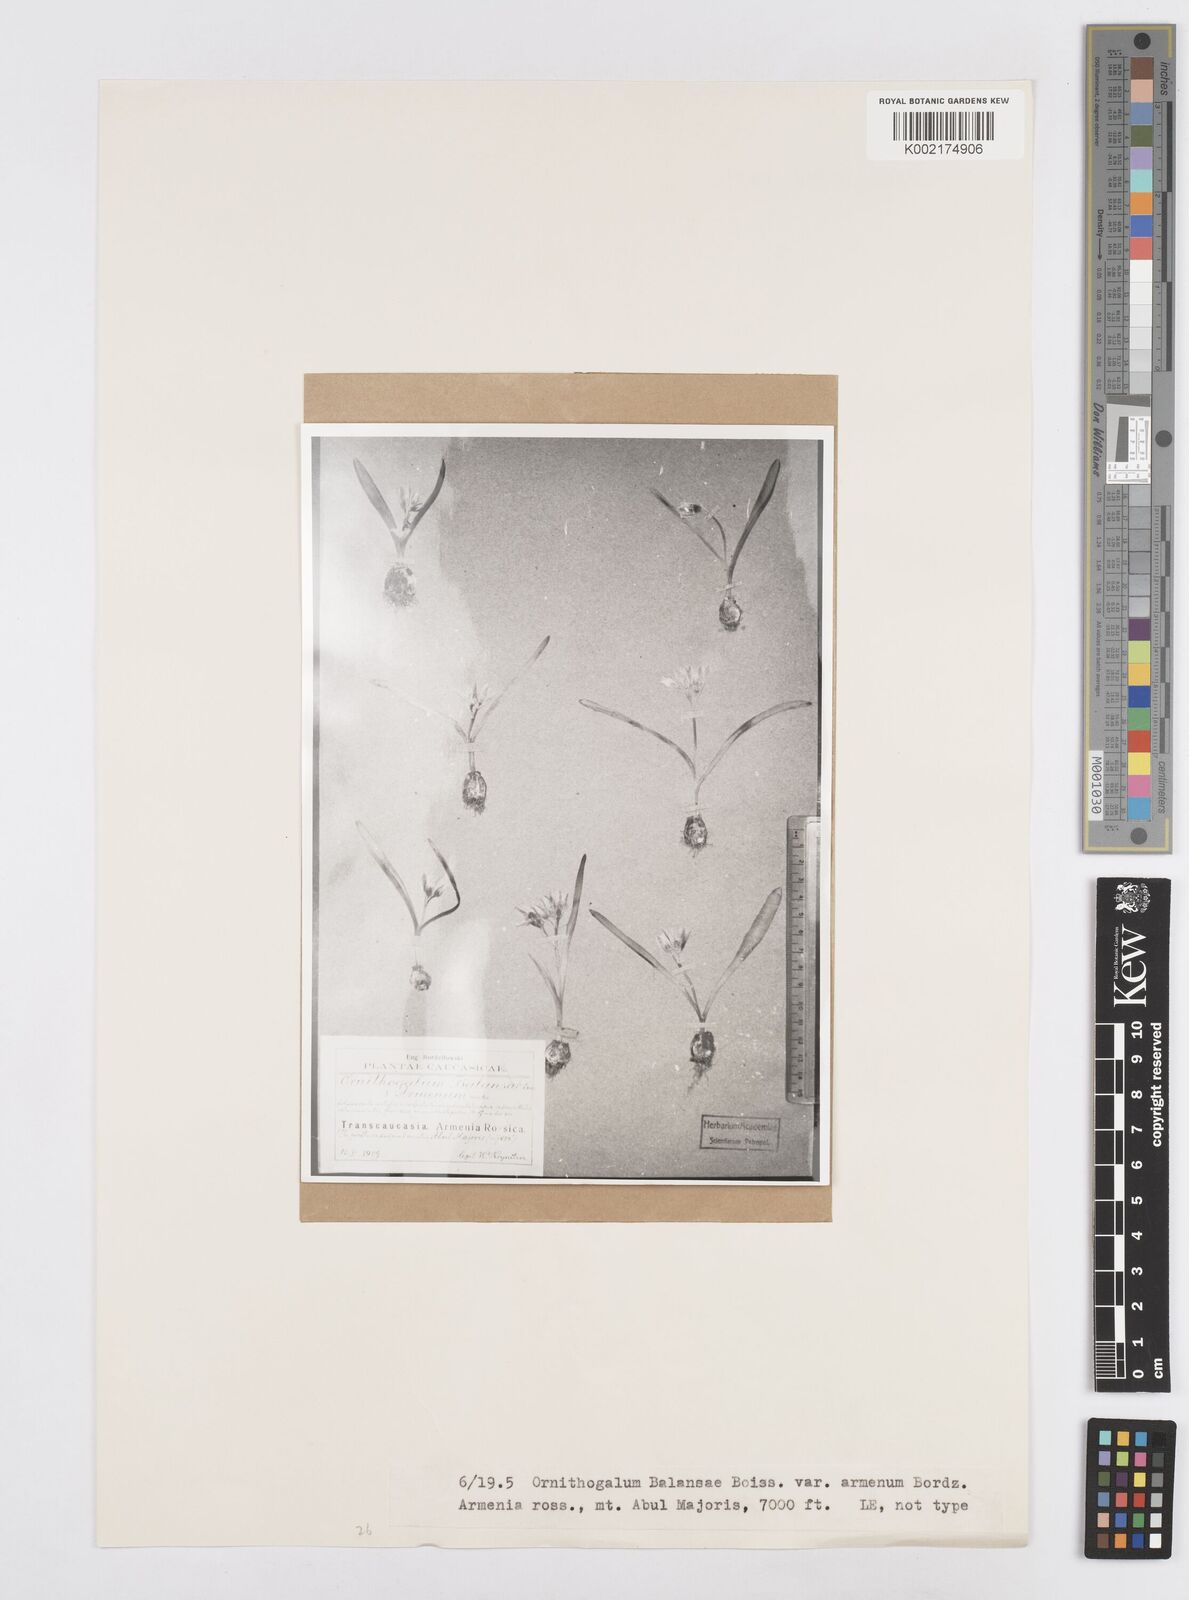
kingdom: Plantae
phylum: Tracheophyta
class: Liliopsida
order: Asparagales
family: Asparagaceae
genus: Ornithogalum
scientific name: Ornithogalum balansae
